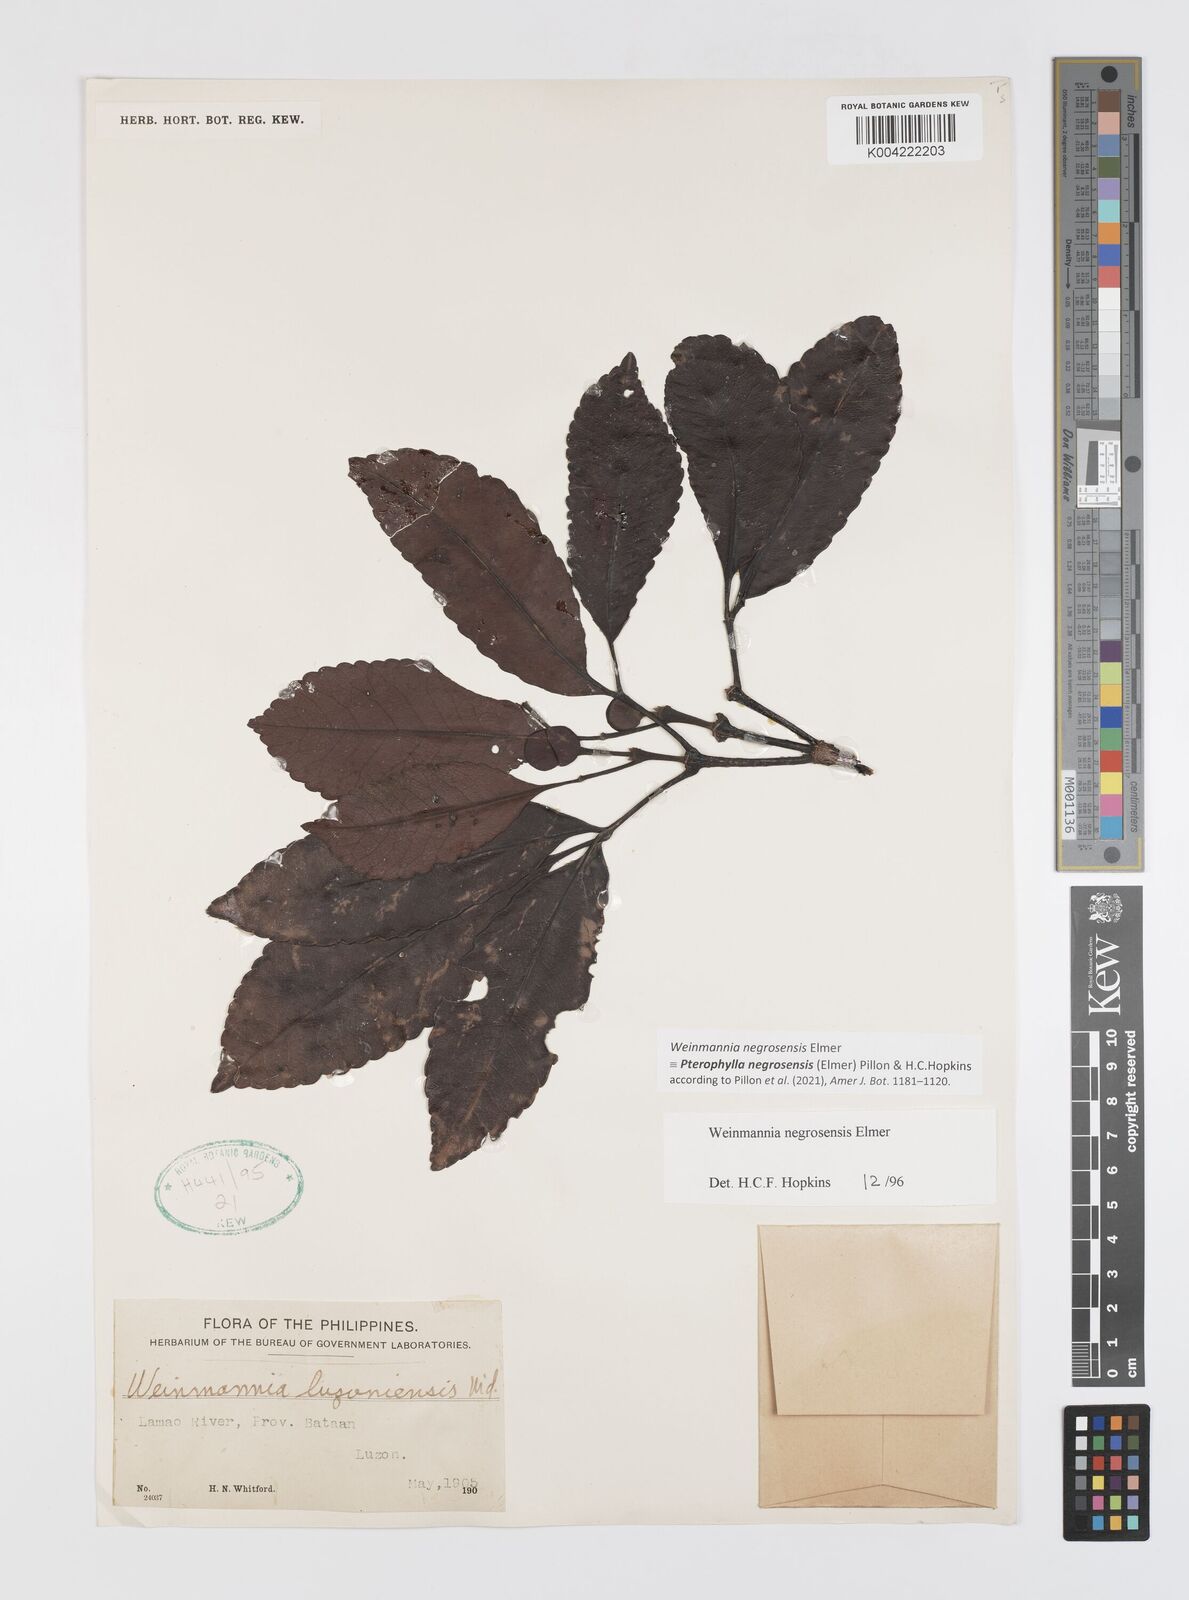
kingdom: Plantae
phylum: Tracheophyta
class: Magnoliopsida
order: Oxalidales
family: Cunoniaceae
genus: Pterophylla
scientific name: Pterophylla negrosensis
